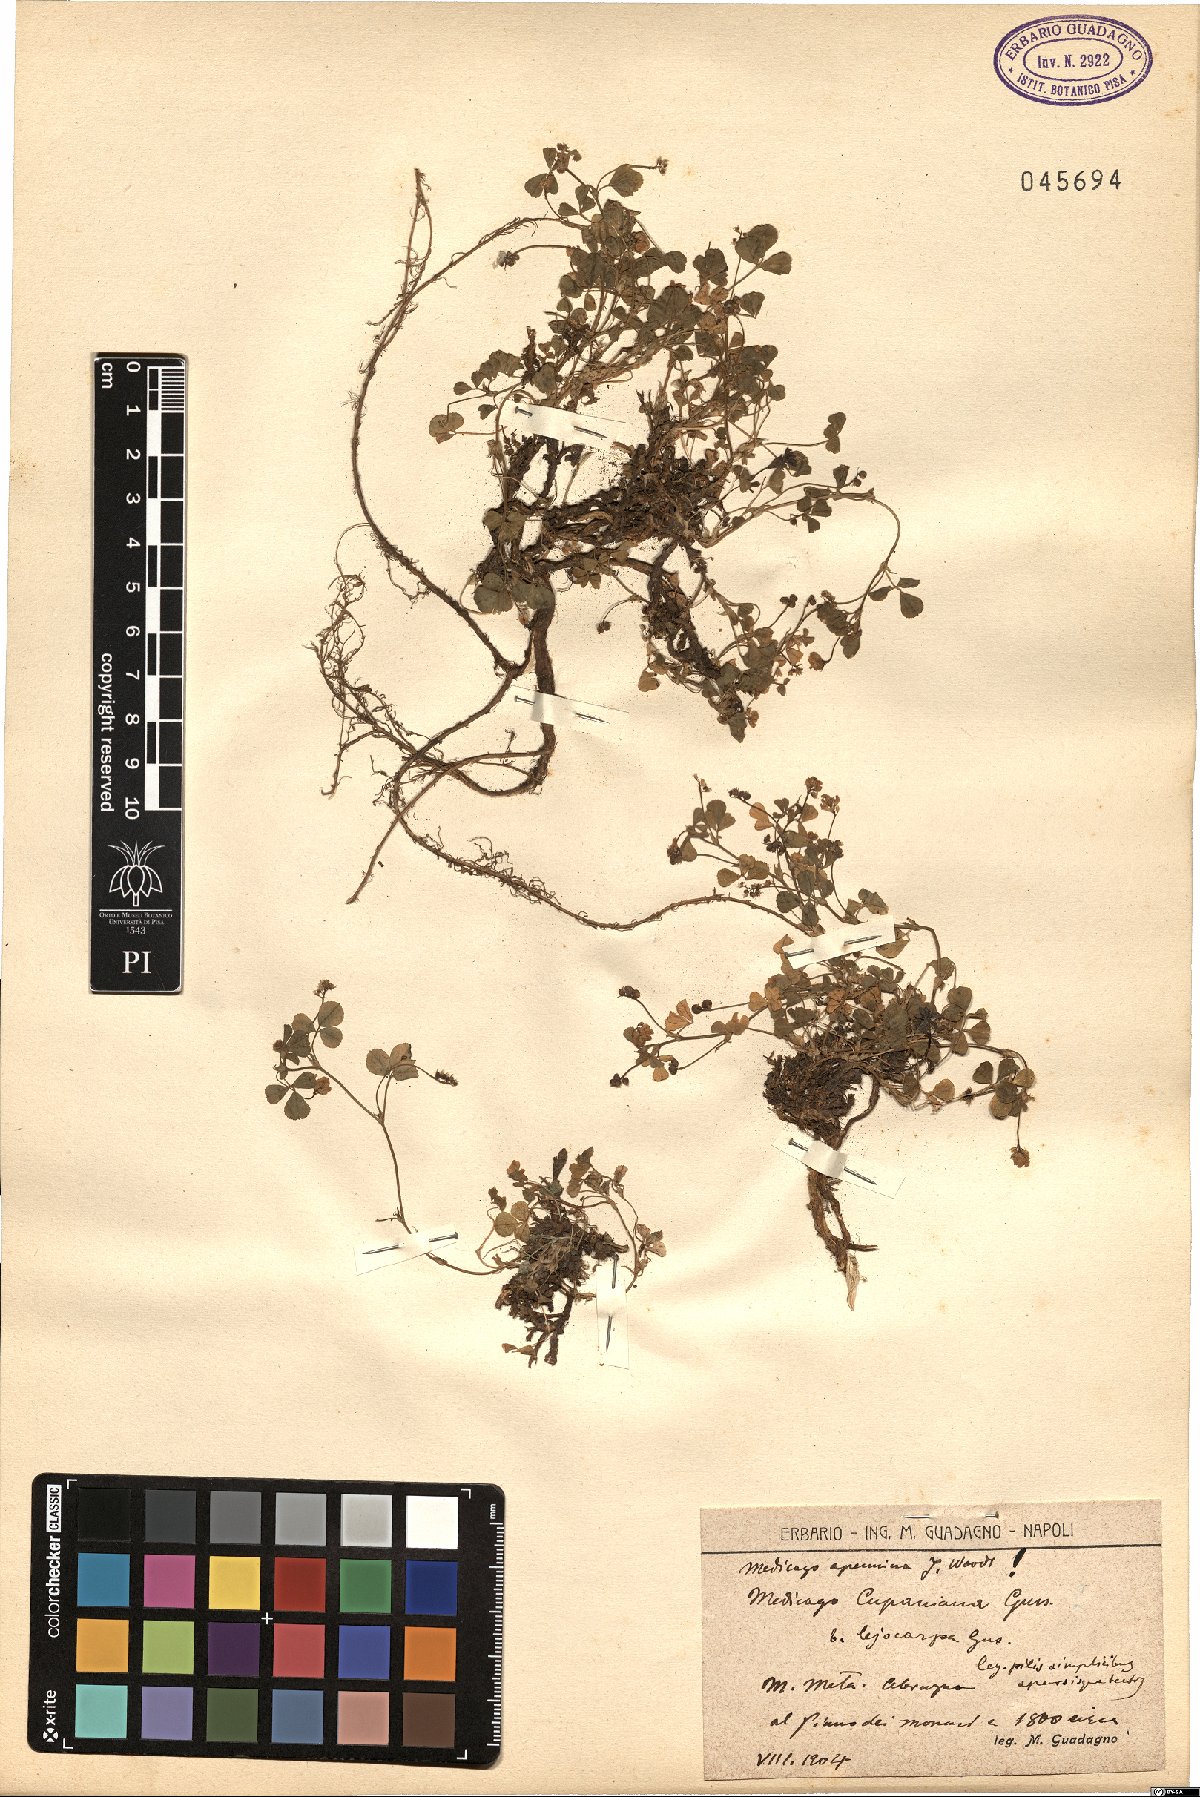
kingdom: Plantae
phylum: Tracheophyta
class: Magnoliopsida
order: Fabales
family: Fabaceae
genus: Medicago
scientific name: Medicago lupulina
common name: Black medick
